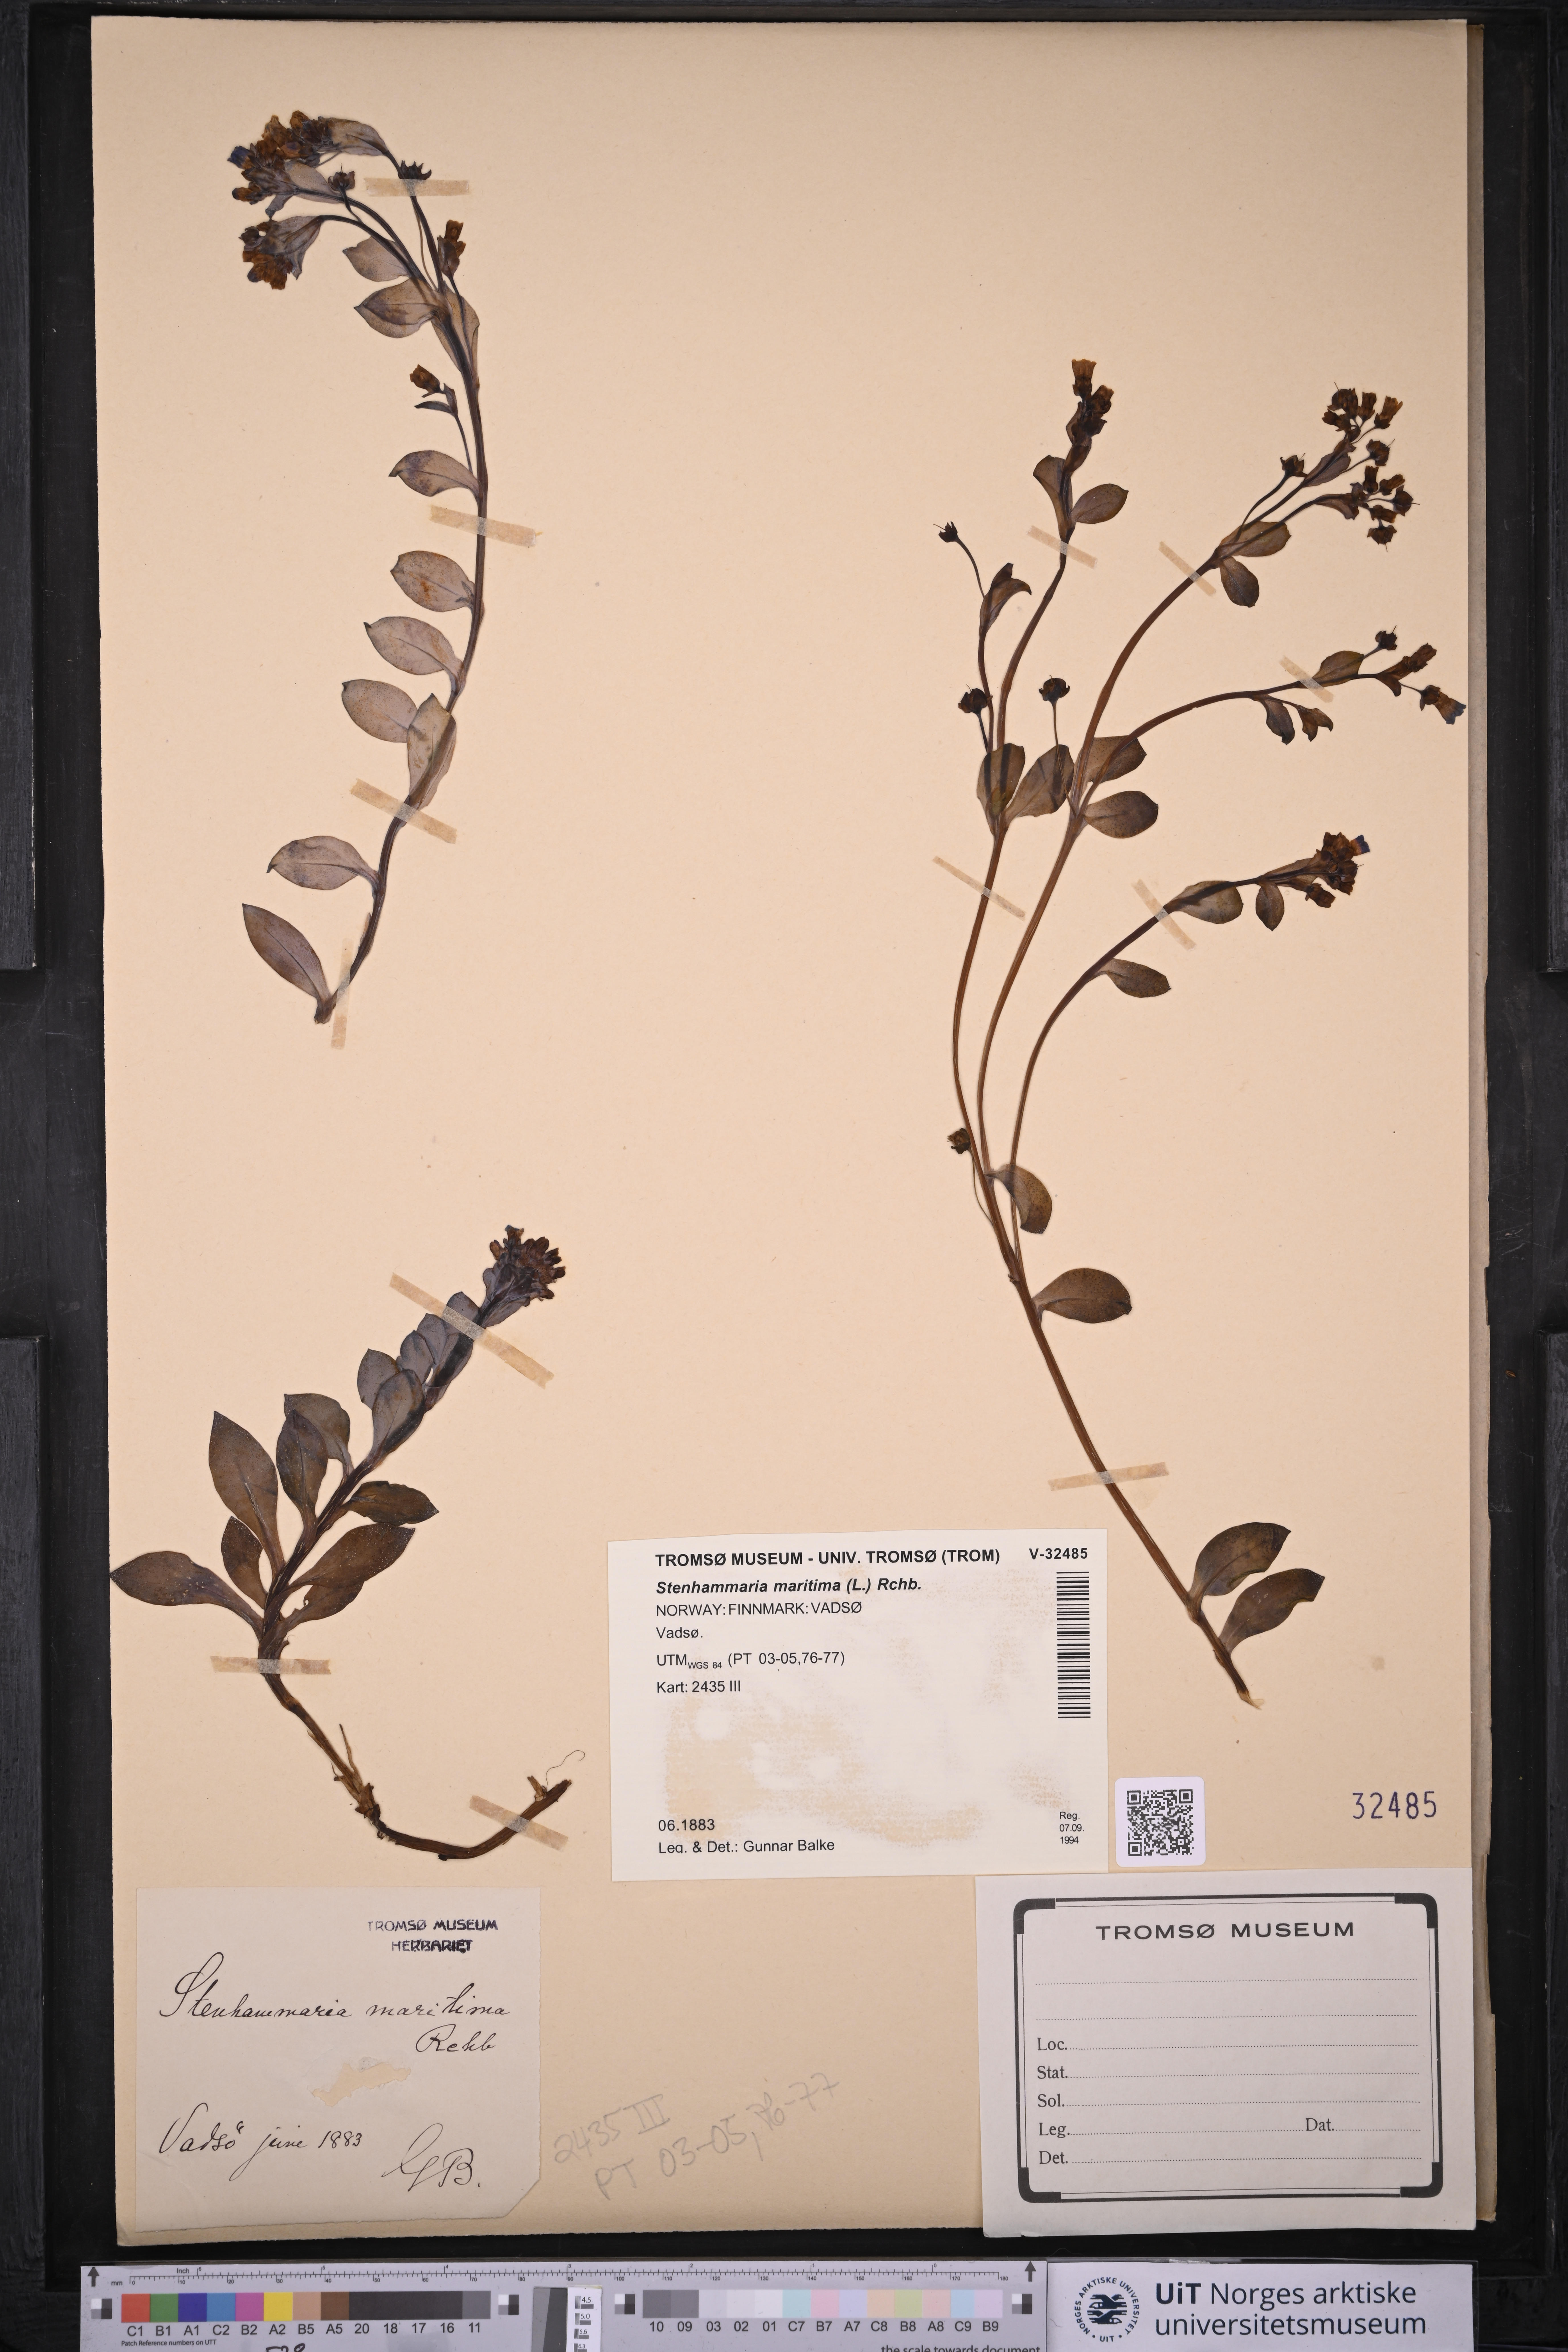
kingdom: Plantae
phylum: Tracheophyta
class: Magnoliopsida
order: Boraginales
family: Boraginaceae
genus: Mertensia
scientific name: Mertensia maritima
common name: Oysterplant
